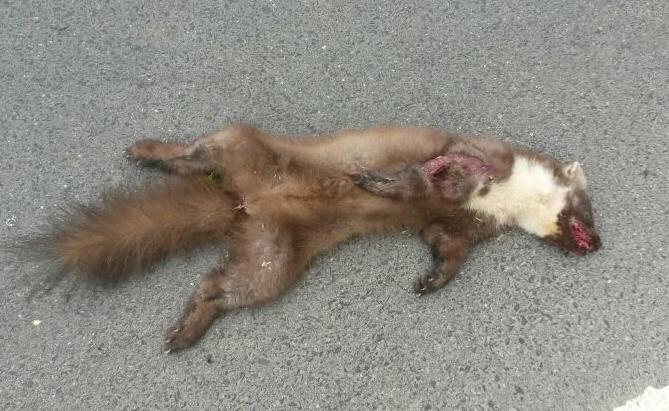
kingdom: Animalia
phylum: Chordata
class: Mammalia
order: Carnivora
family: Mustelidae
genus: Martes
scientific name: Martes martes
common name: European pine marten
